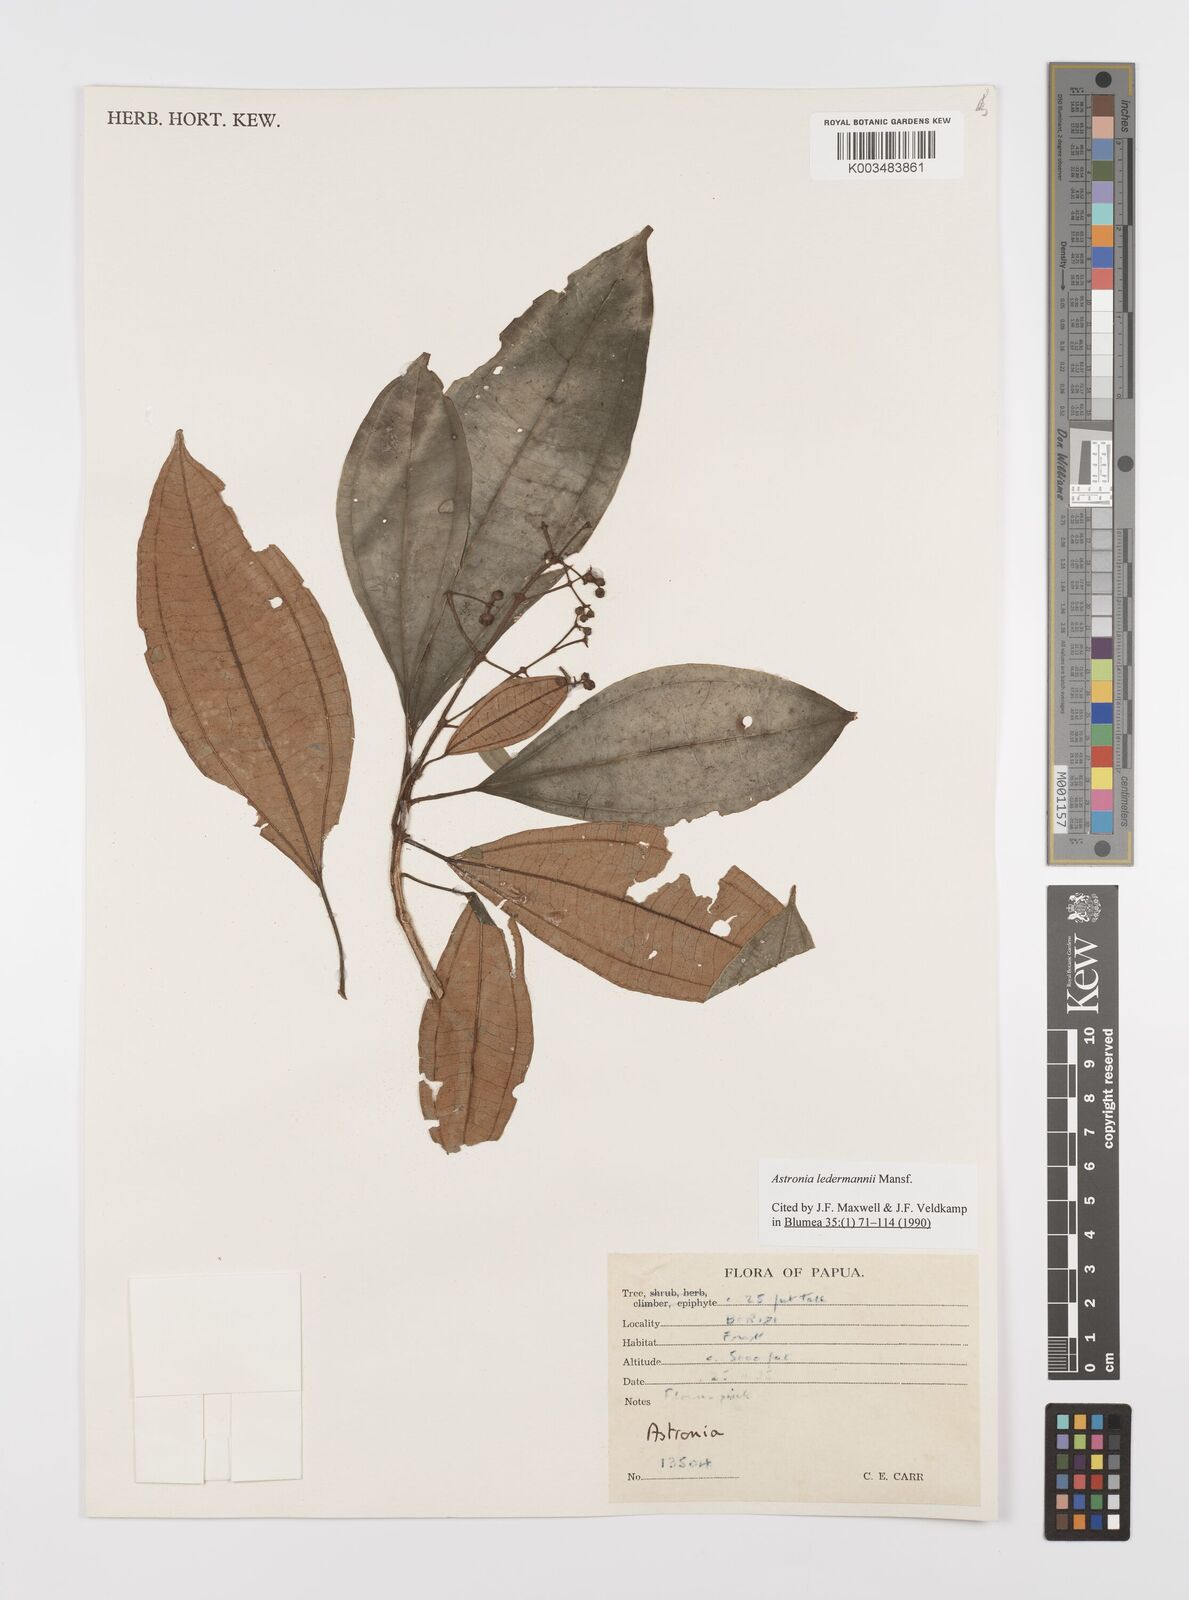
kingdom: Plantae
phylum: Tracheophyta
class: Magnoliopsida
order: Myrtales
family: Melastomataceae
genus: Astronia
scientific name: Astronia ledermannii
